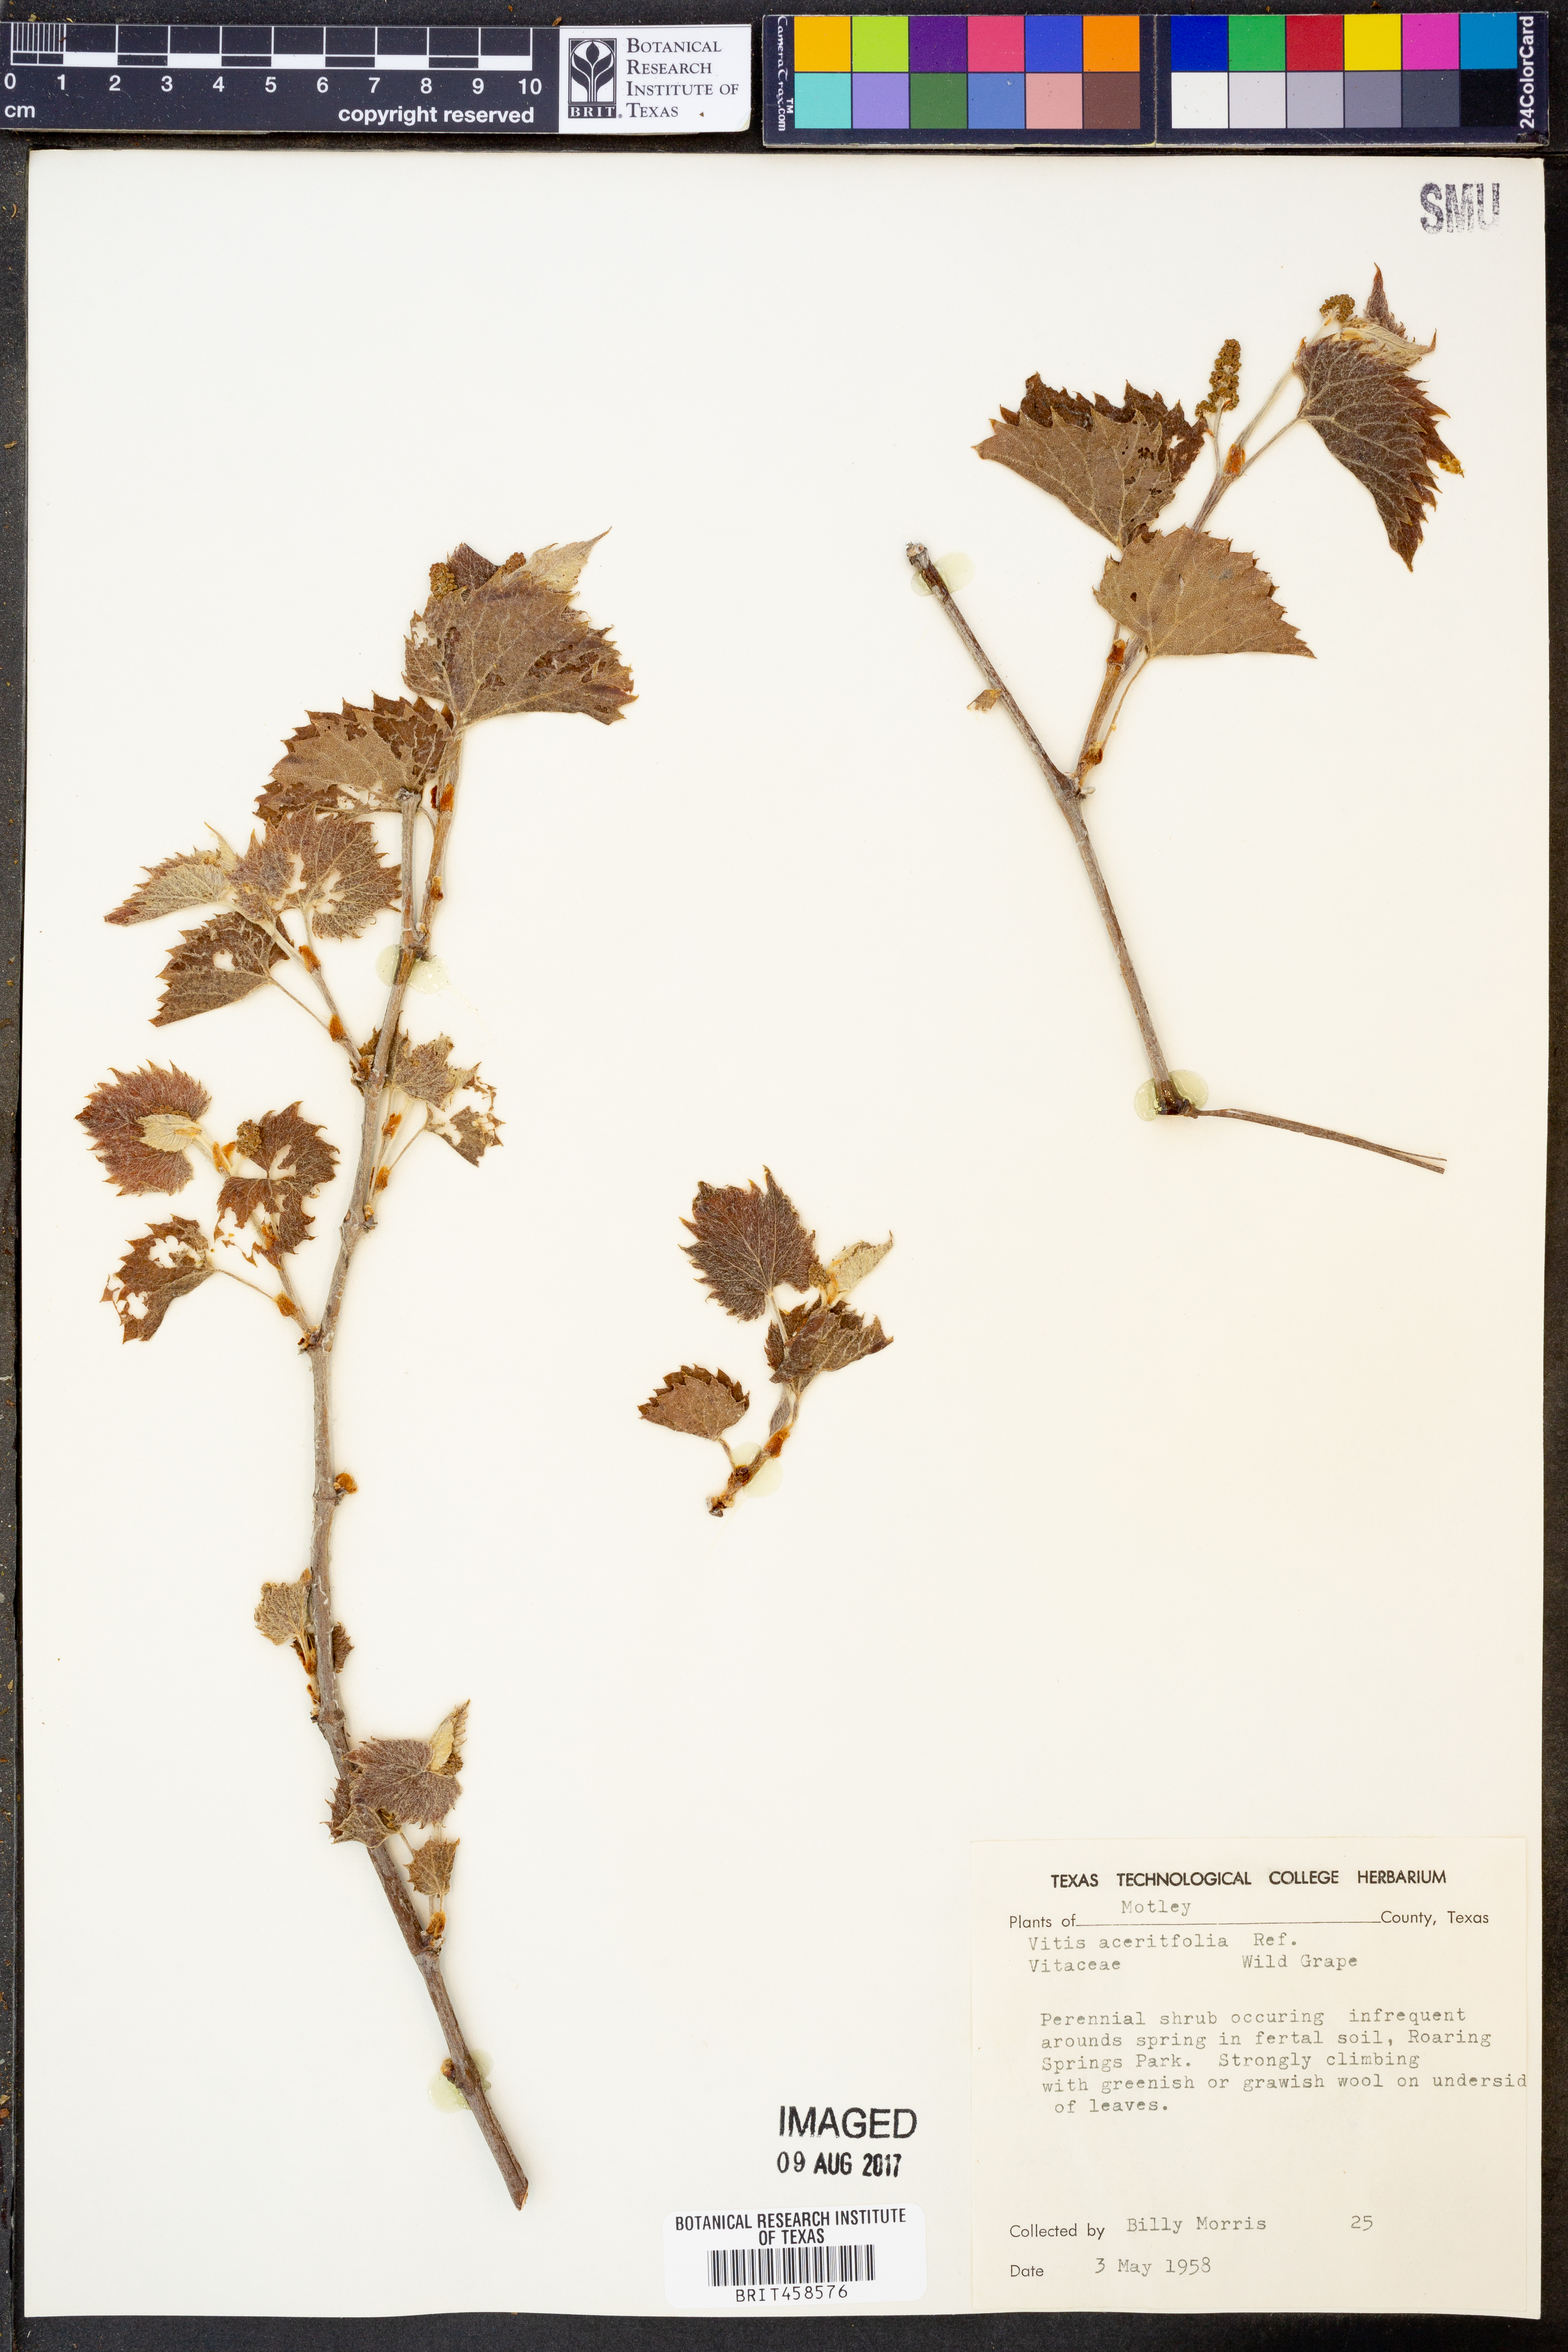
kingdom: Plantae
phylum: Tracheophyta
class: Magnoliopsida
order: Vitales
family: Vitaceae
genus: Vitis
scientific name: Vitis acerifolia
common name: Bush grape
